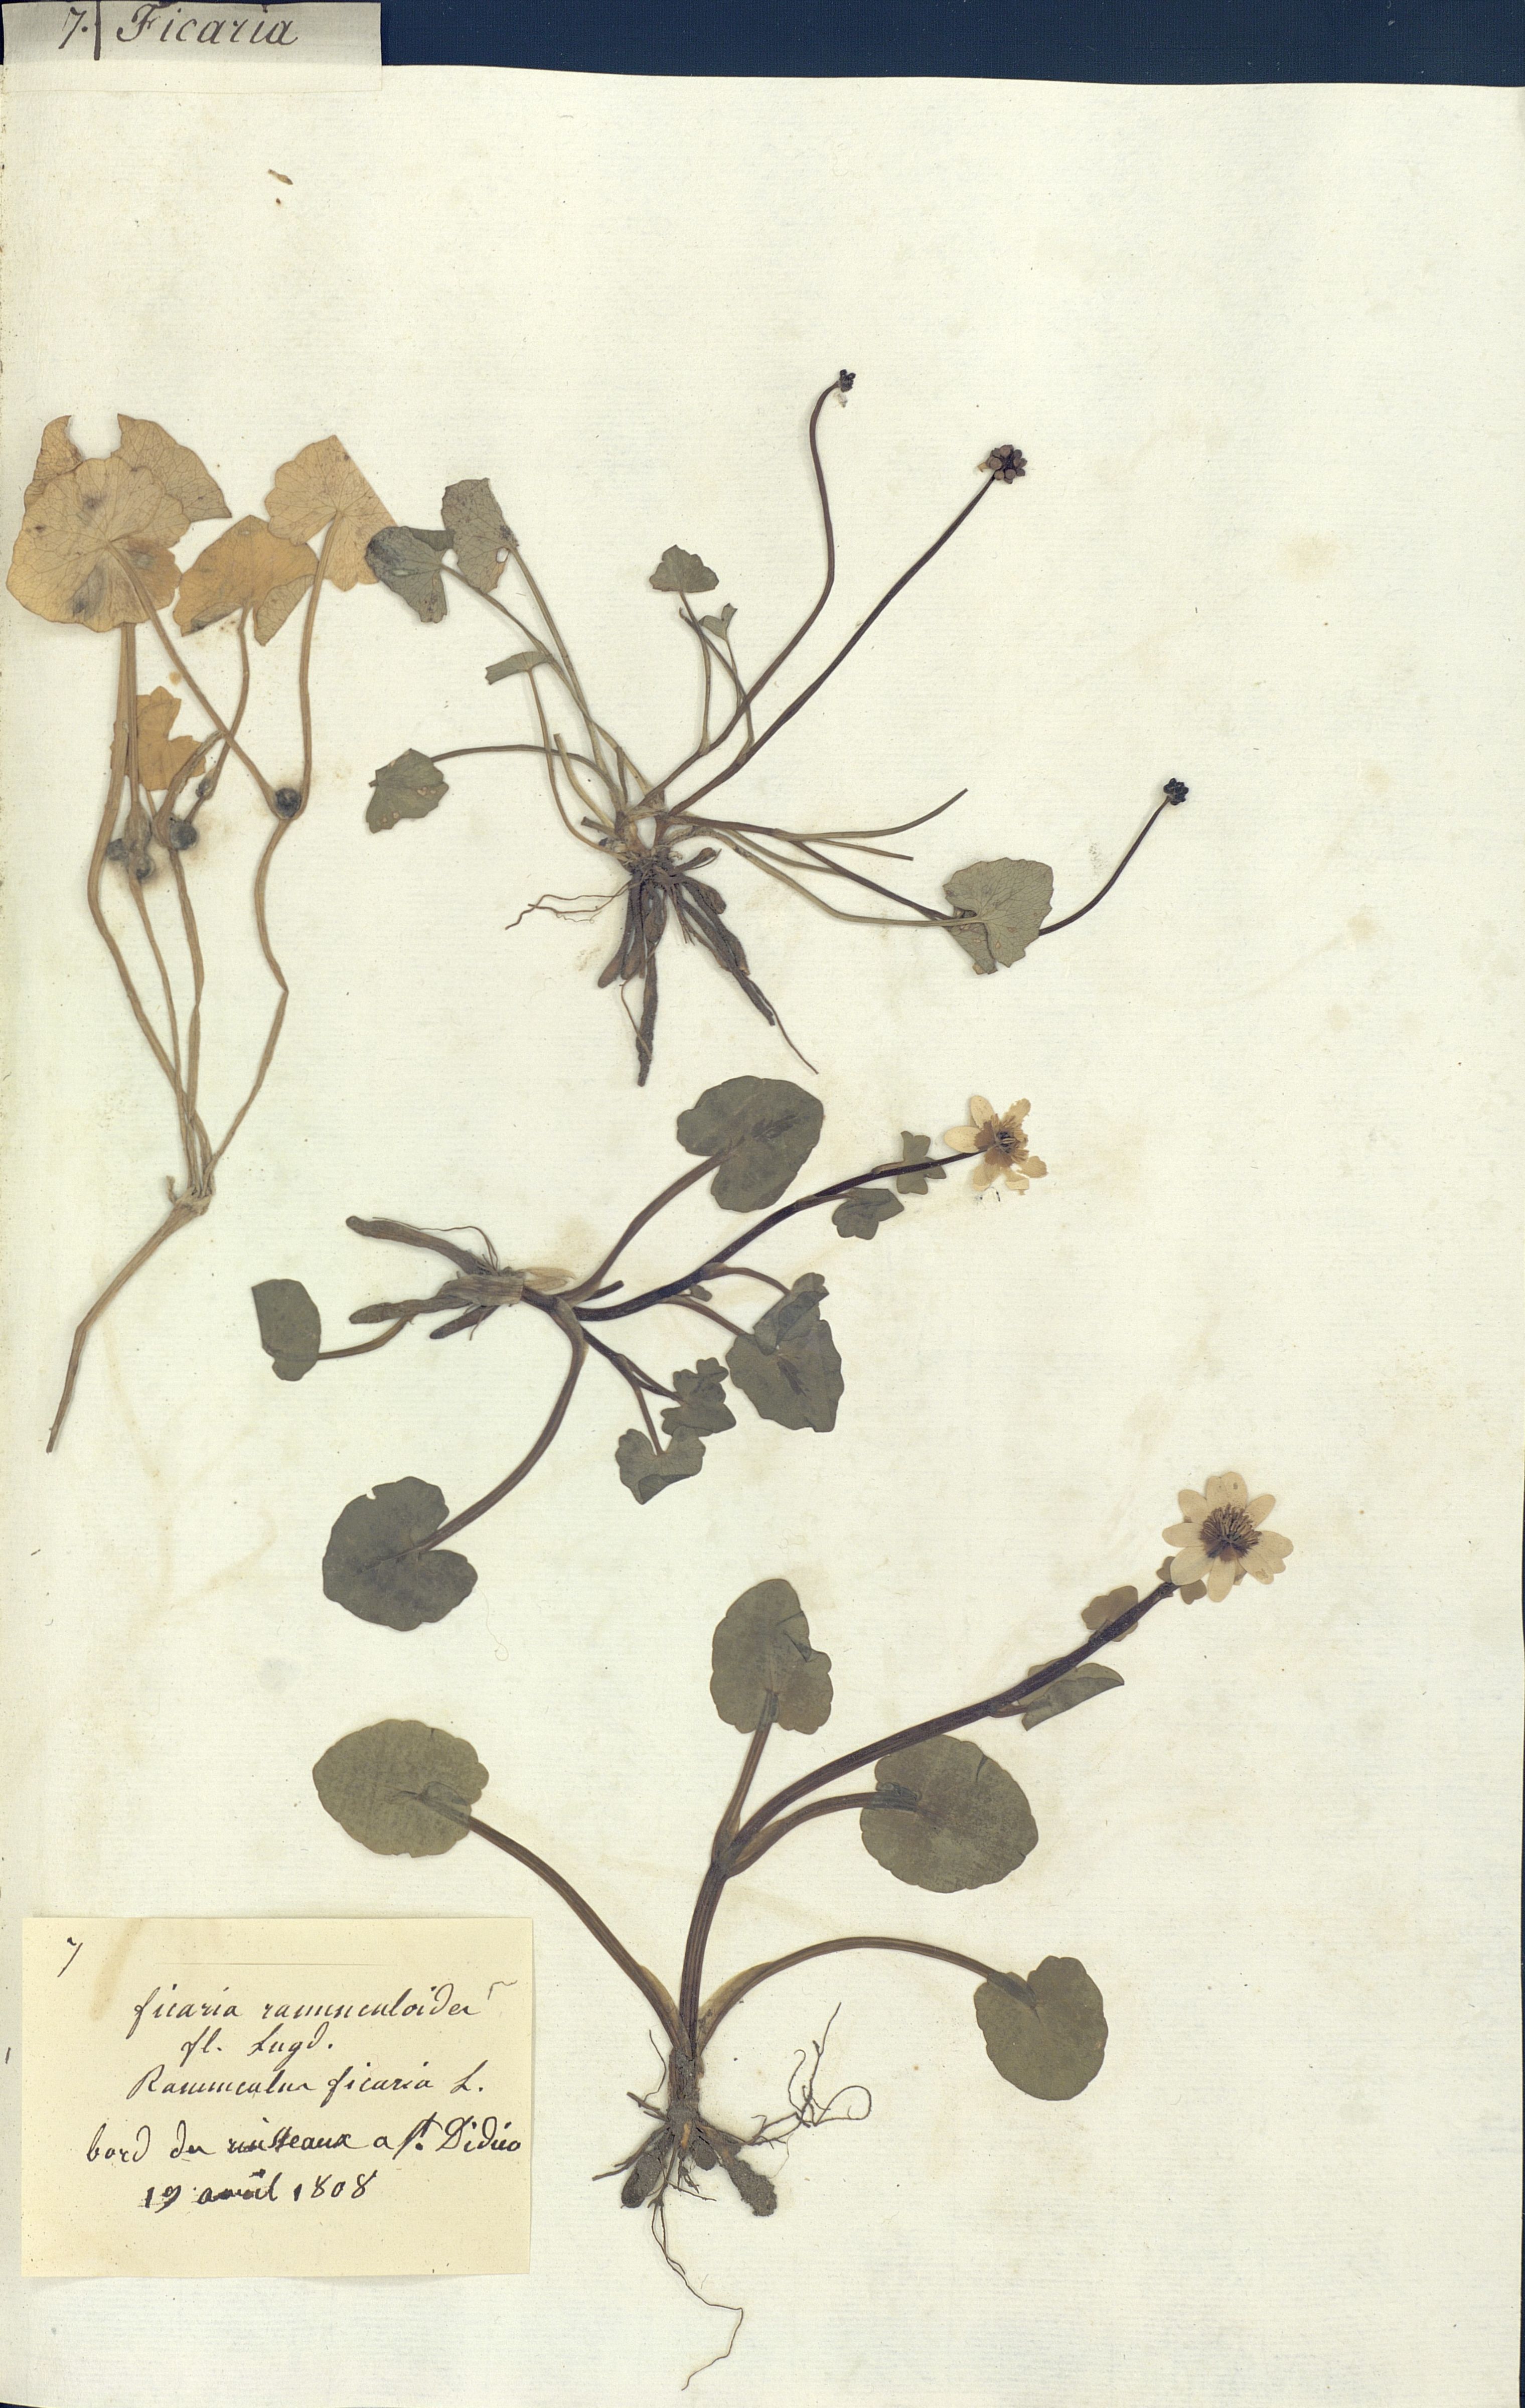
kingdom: Plantae
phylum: Tracheophyta
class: Magnoliopsida
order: Ranunculales
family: Ranunculaceae
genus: Ficaria
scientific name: Ficaria verna
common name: Lesser celandine
